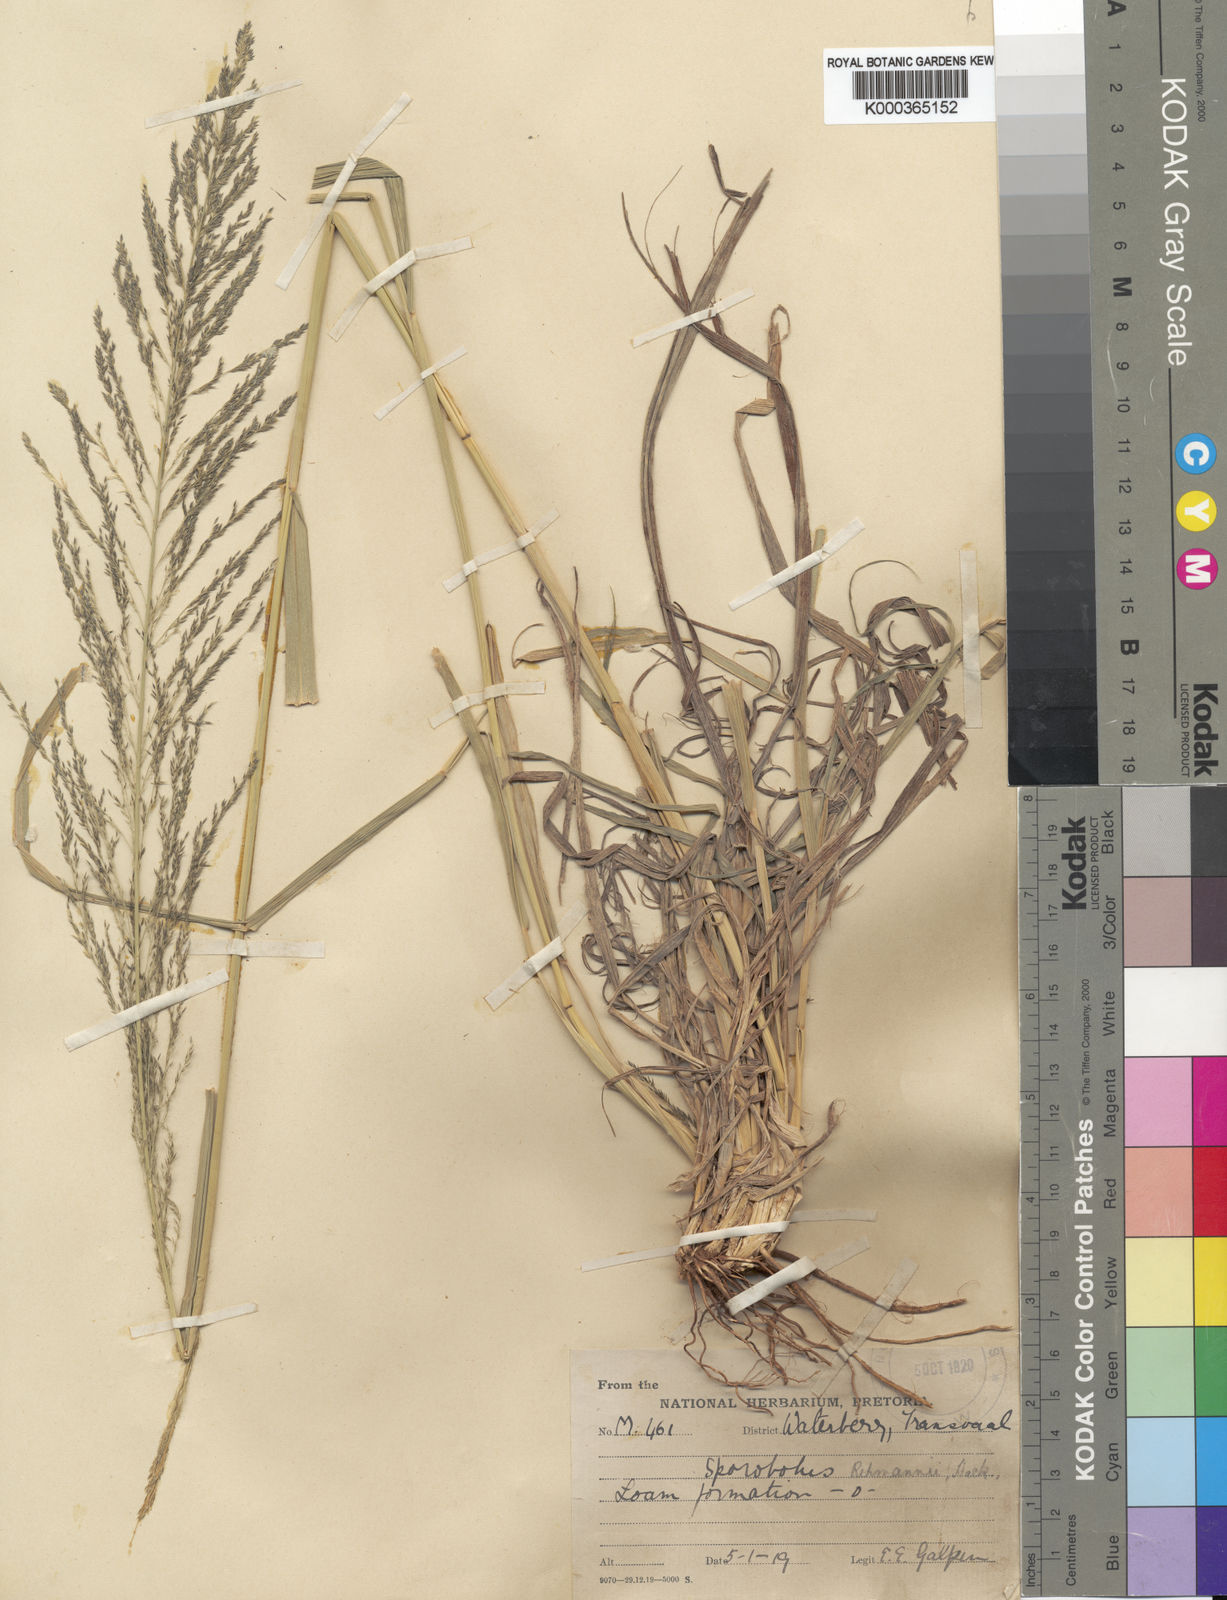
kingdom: Plantae
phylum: Tracheophyta
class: Liliopsida
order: Poales
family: Poaceae
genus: Sporobolus
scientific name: Sporobolus fimbriatus
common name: Fringed dropseed
